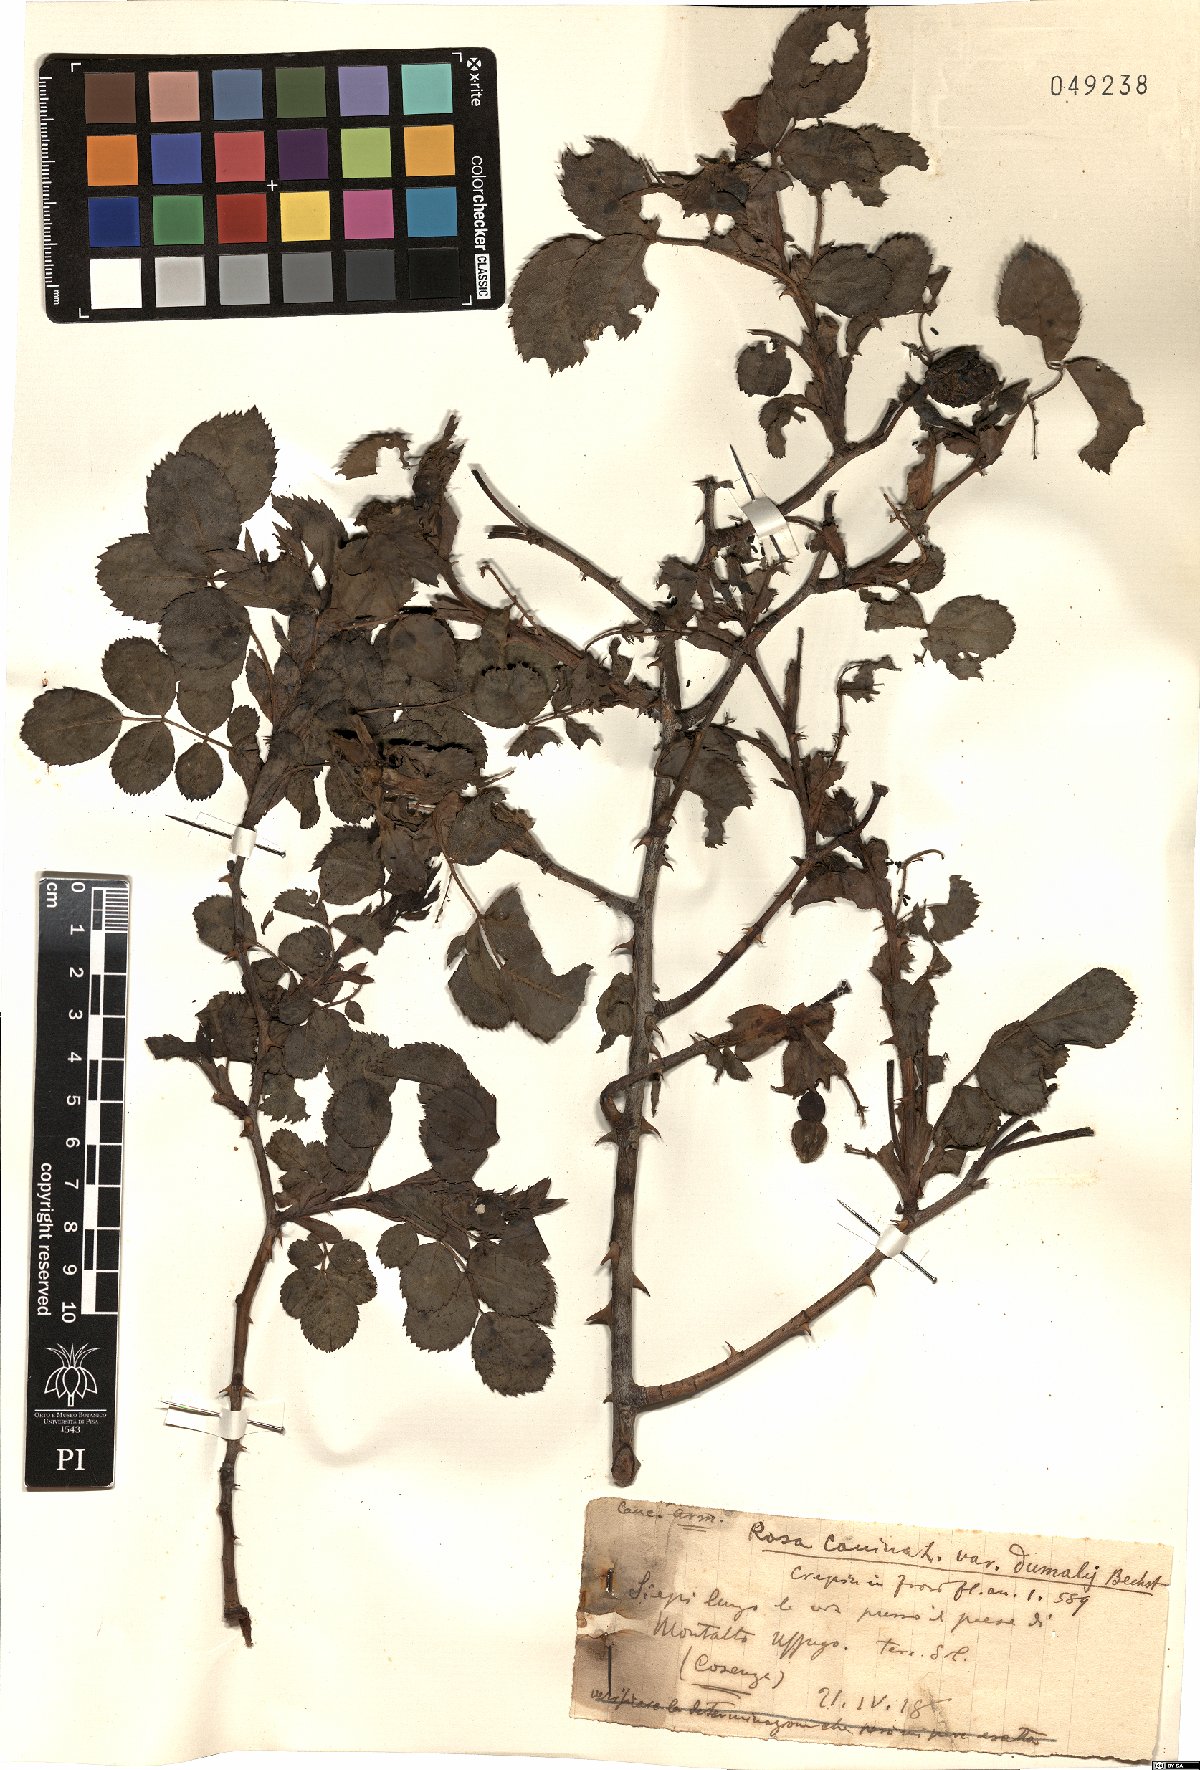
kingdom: Plantae
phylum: Tracheophyta
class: Magnoliopsida
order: Rosales
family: Rosaceae
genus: Rosa
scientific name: Rosa subcanina
